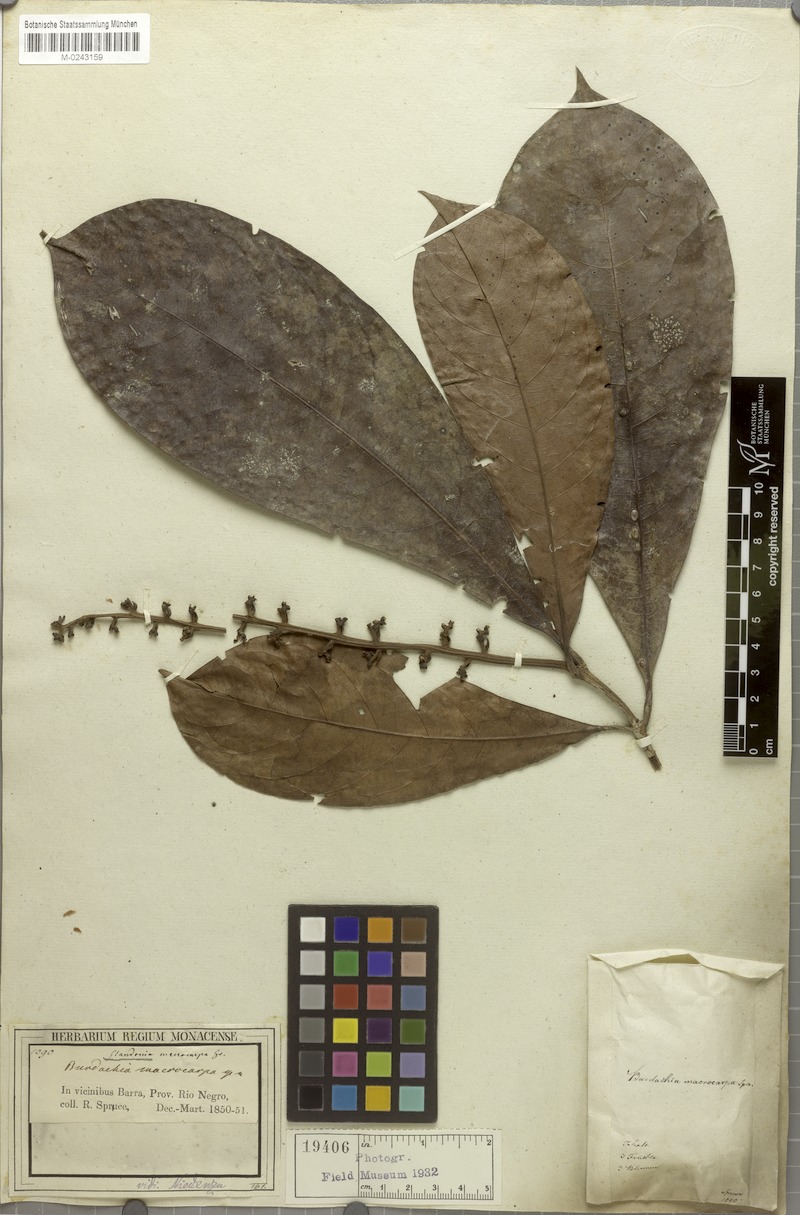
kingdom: Plantae
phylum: Tracheophyta
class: Magnoliopsida
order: Malpighiales
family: Malpighiaceae
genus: Glandonia
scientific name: Glandonia macrocarpa
